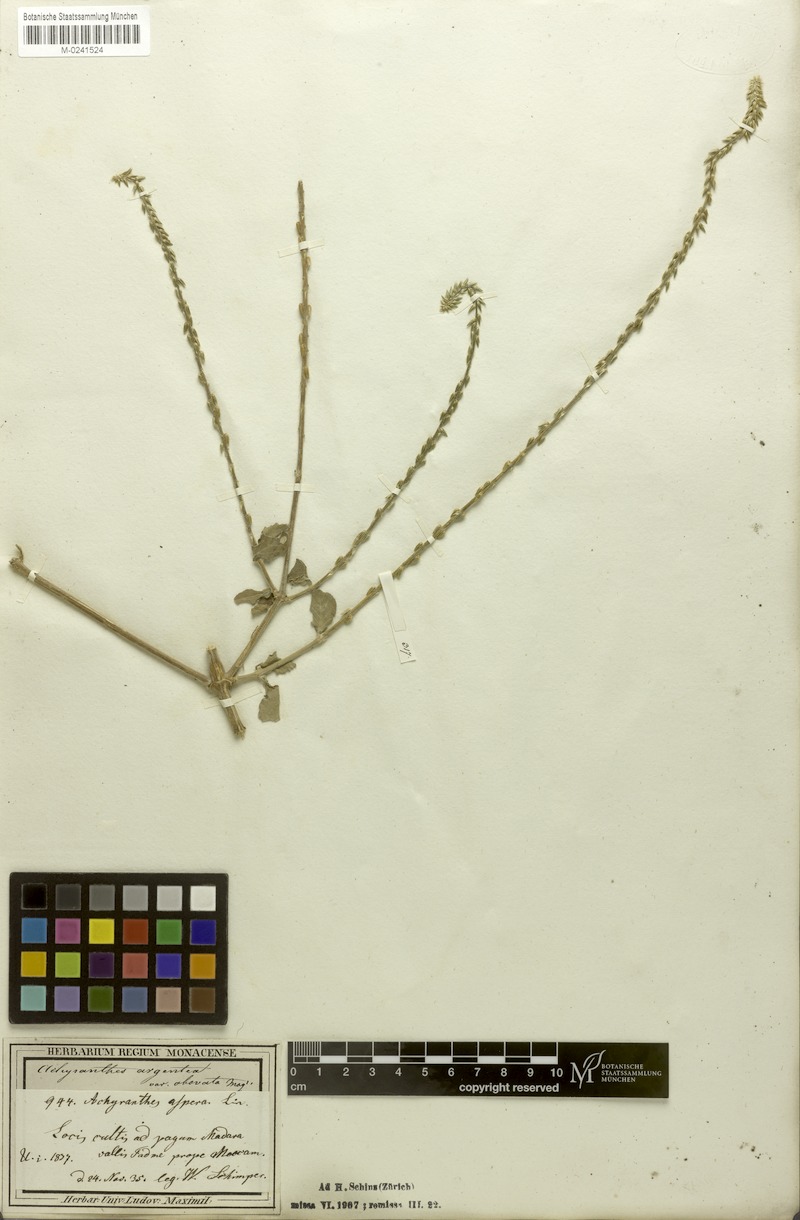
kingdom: Plantae
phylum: Tracheophyta
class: Magnoliopsida
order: Caryophyllales
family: Amaranthaceae
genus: Achyranthes
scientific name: Achyranthes
